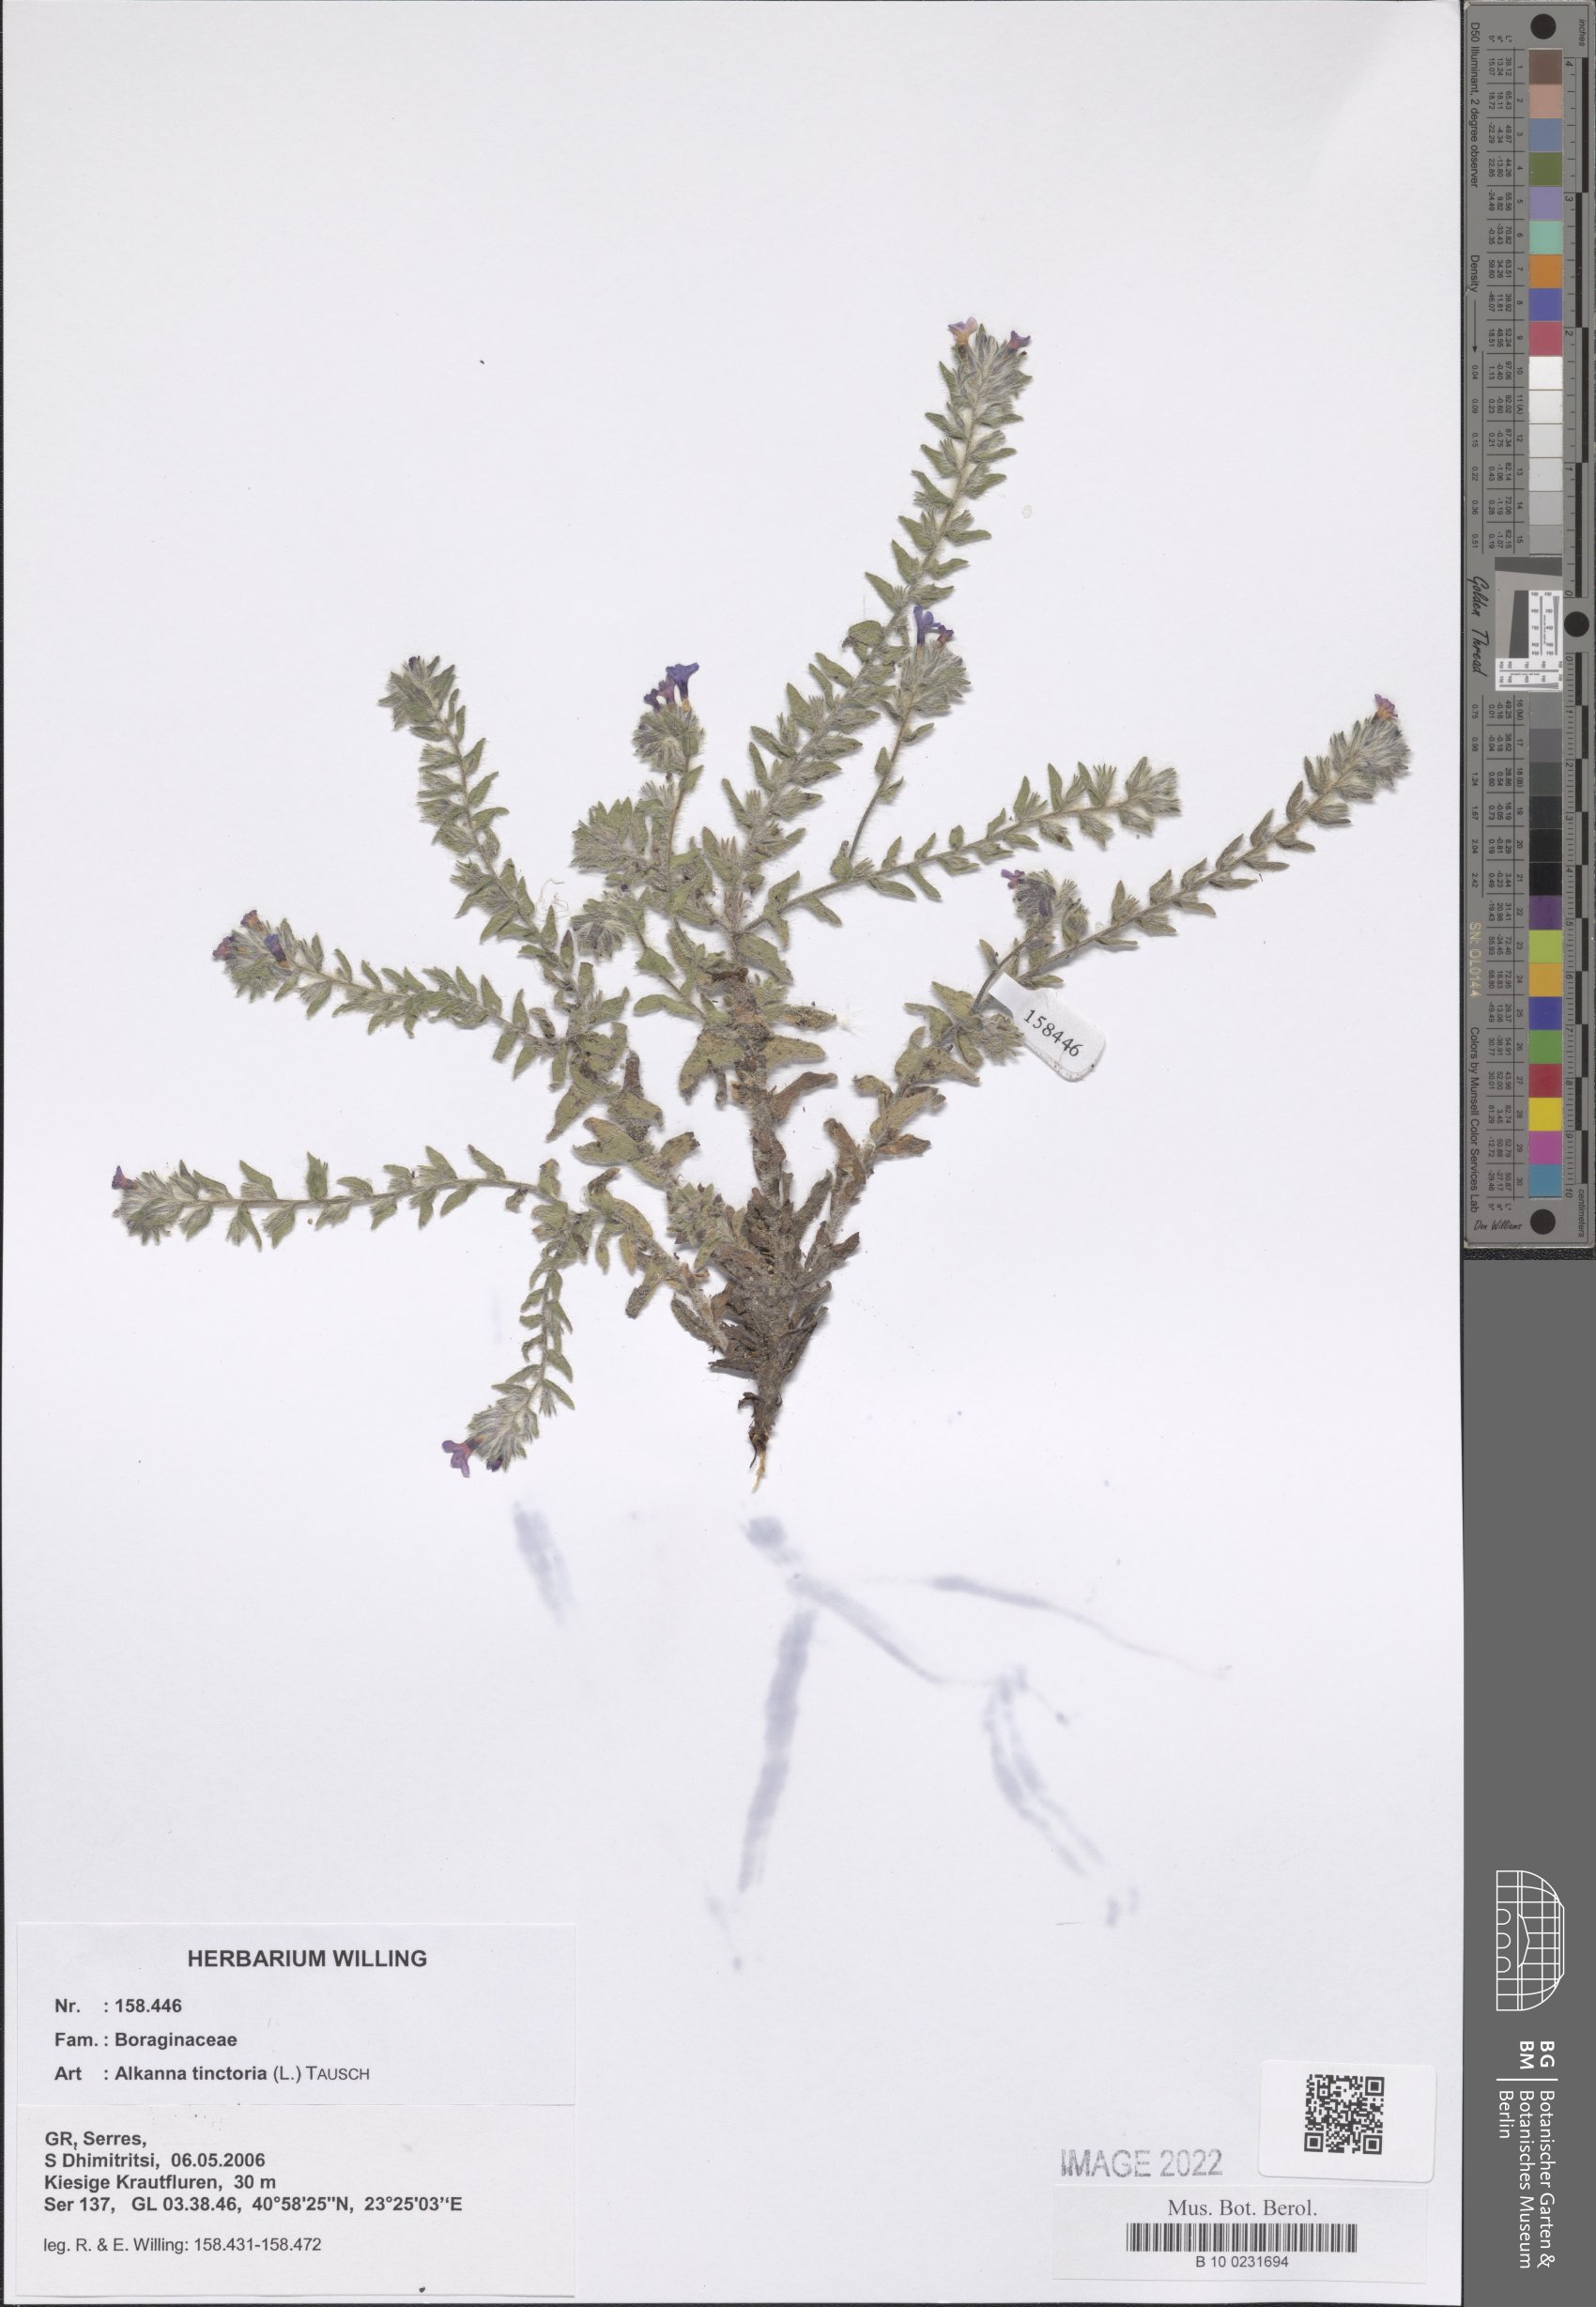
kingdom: Plantae
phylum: Tracheophyta
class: Magnoliopsida
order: Boraginales
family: Boraginaceae
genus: Alkanna
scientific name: Alkanna tinctoria
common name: Dyer's-alkanet
